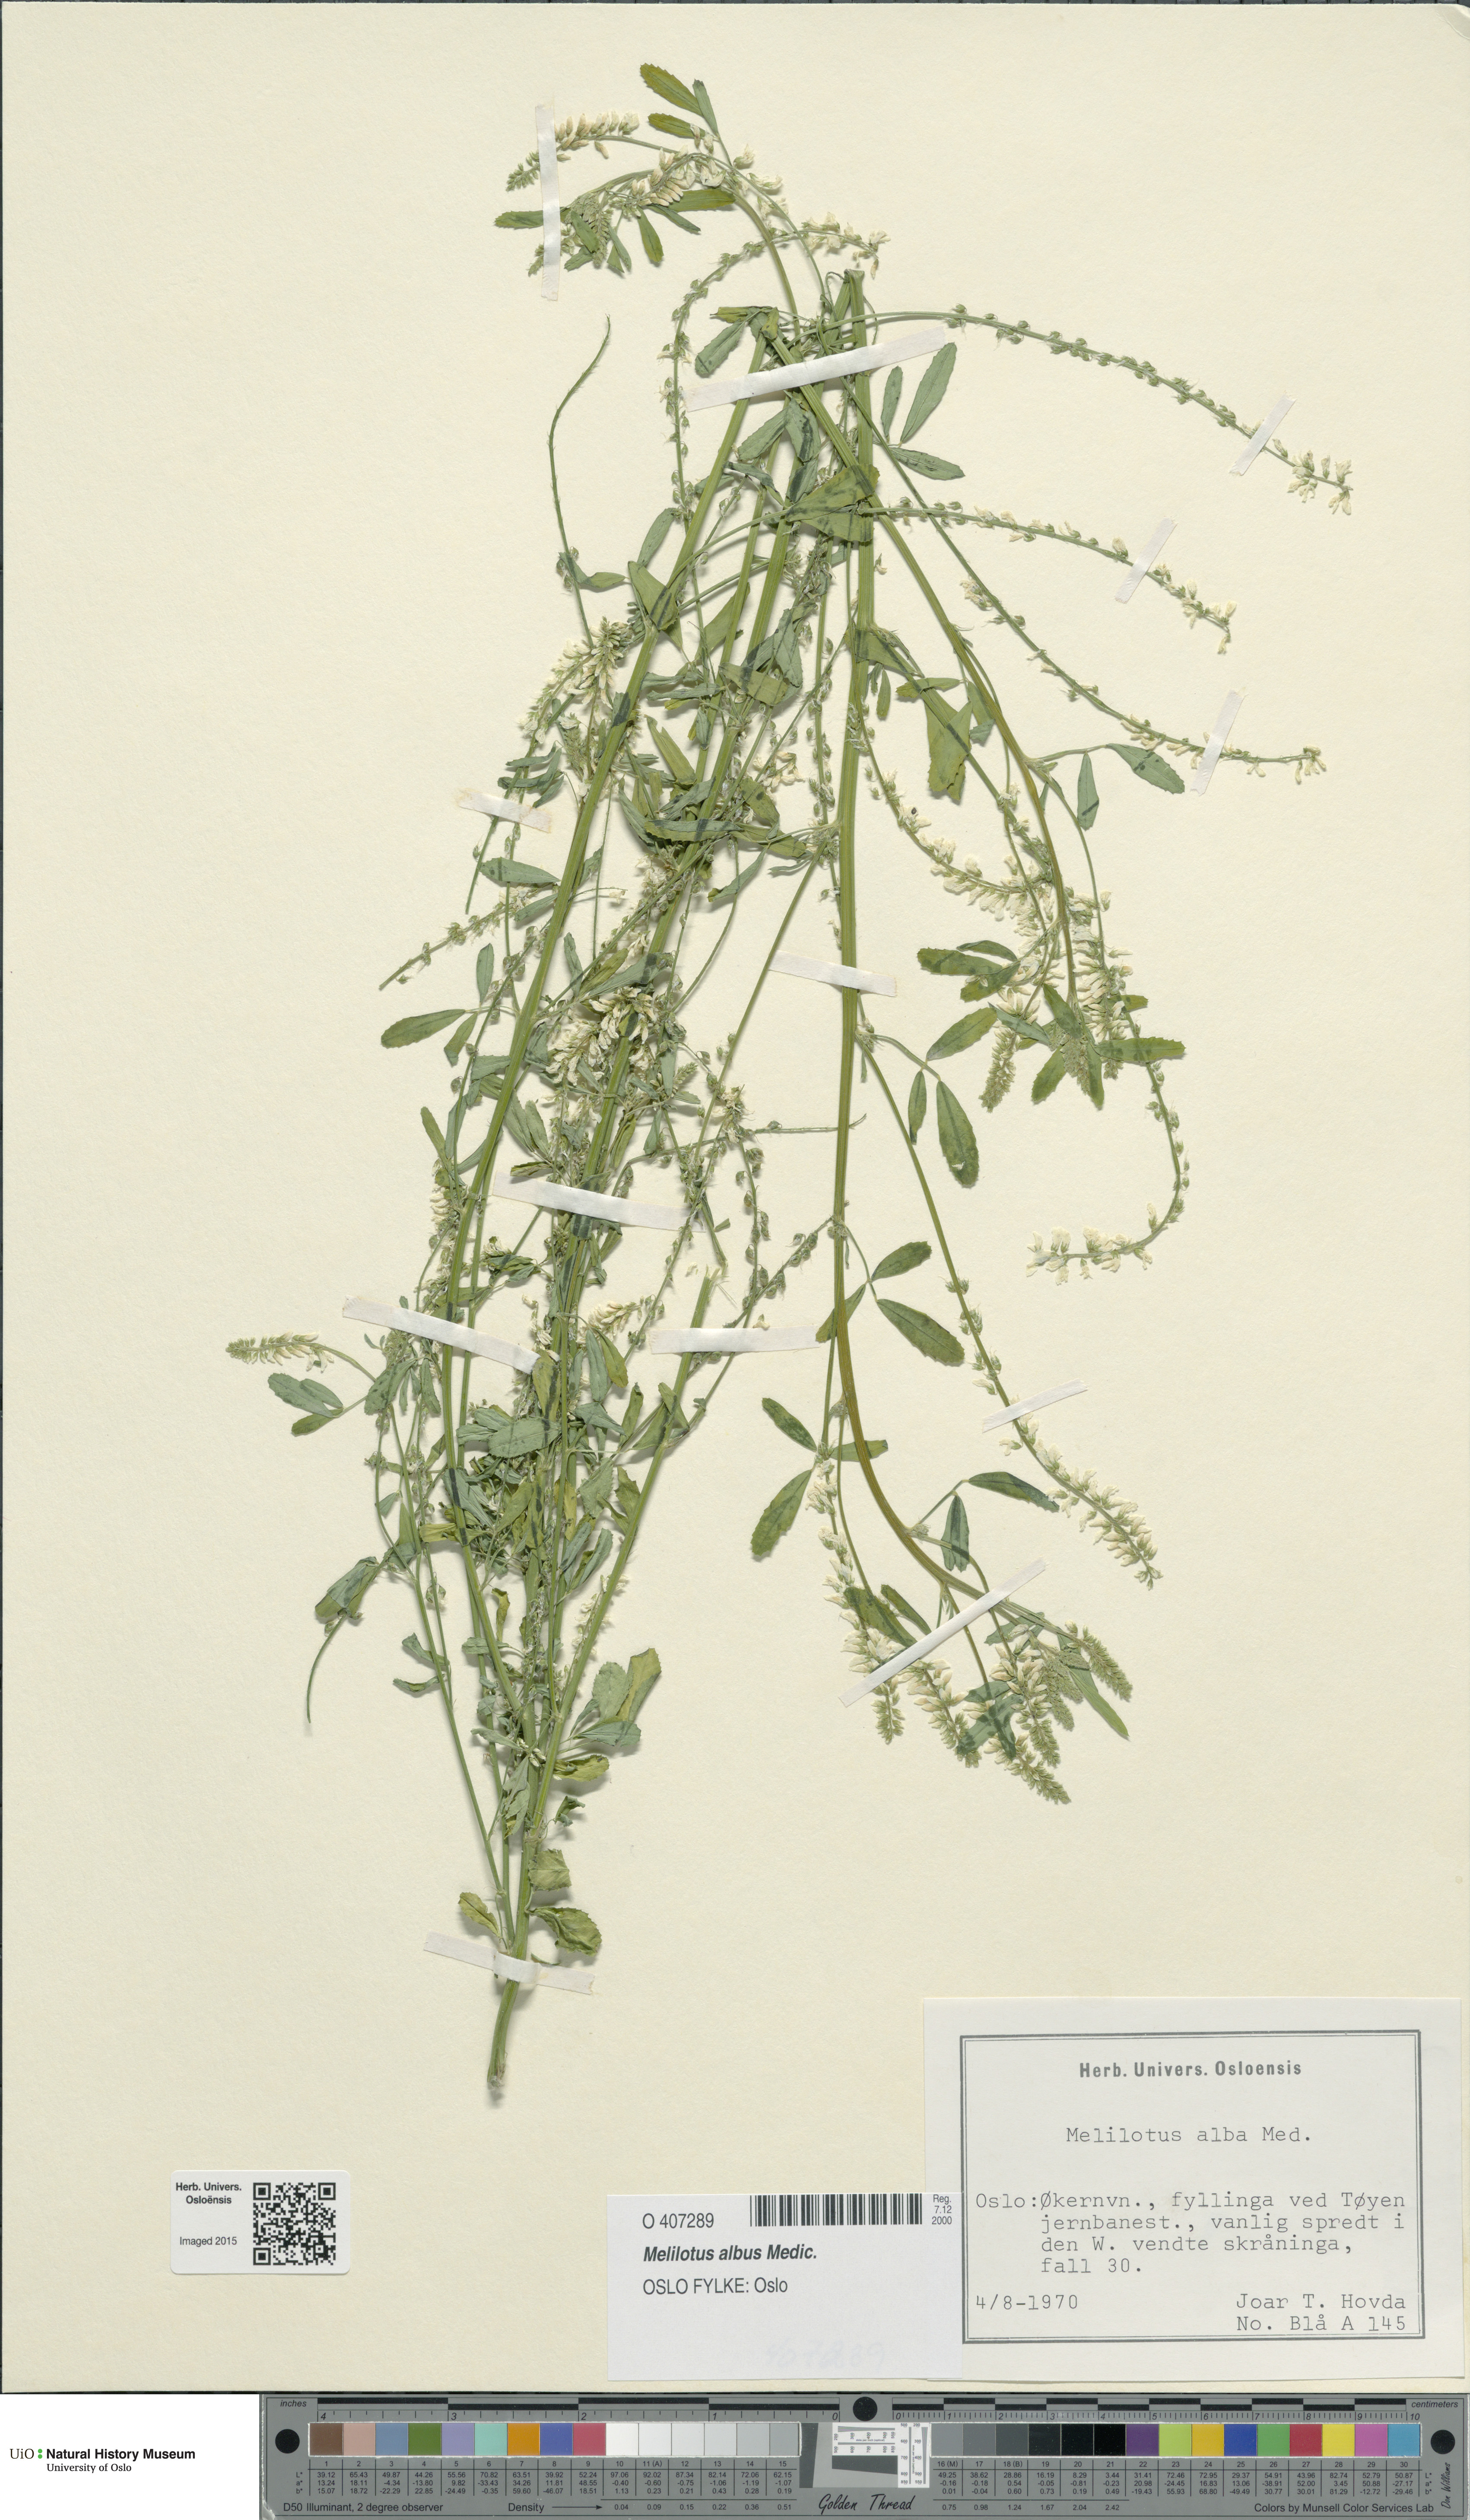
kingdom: Plantae
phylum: Tracheophyta
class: Magnoliopsida
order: Fabales
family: Fabaceae
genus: Melilotus
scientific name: Melilotus albus
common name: White melilot
